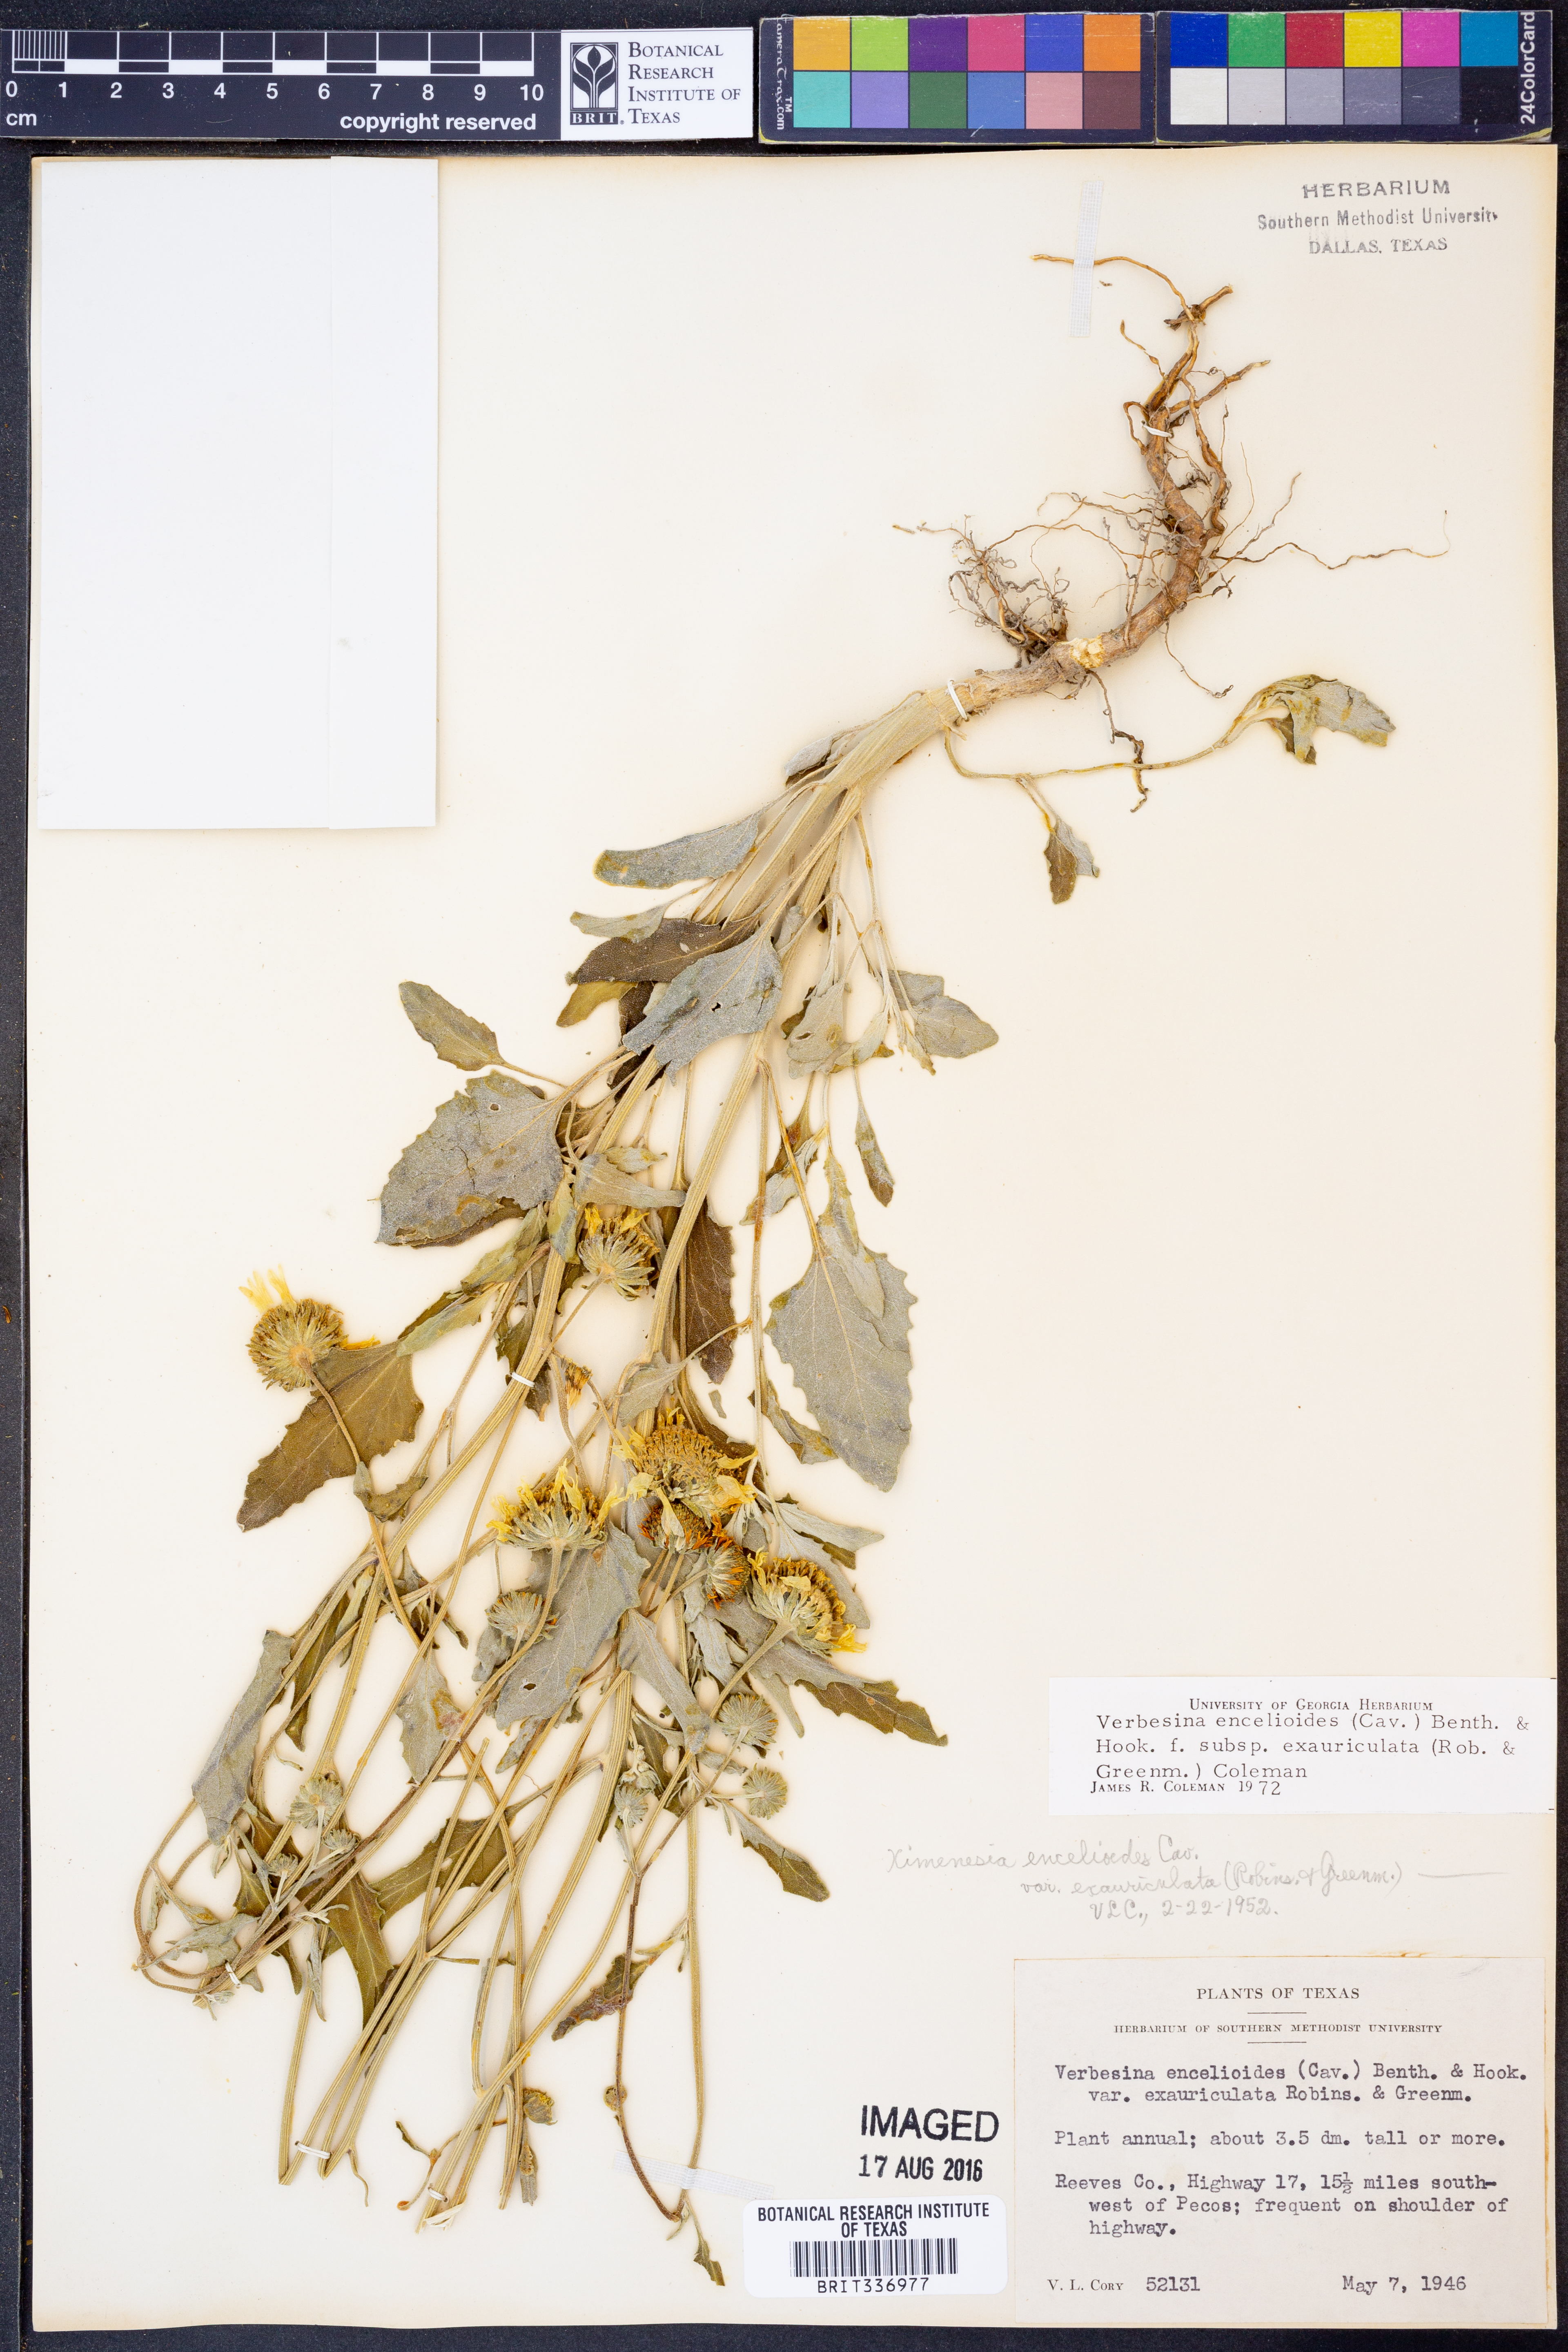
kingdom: Plantae
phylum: Tracheophyta
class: Magnoliopsida
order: Asterales
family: Asteraceae
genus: Verbesina
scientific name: Verbesina encelioides
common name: Golden crownbeard
